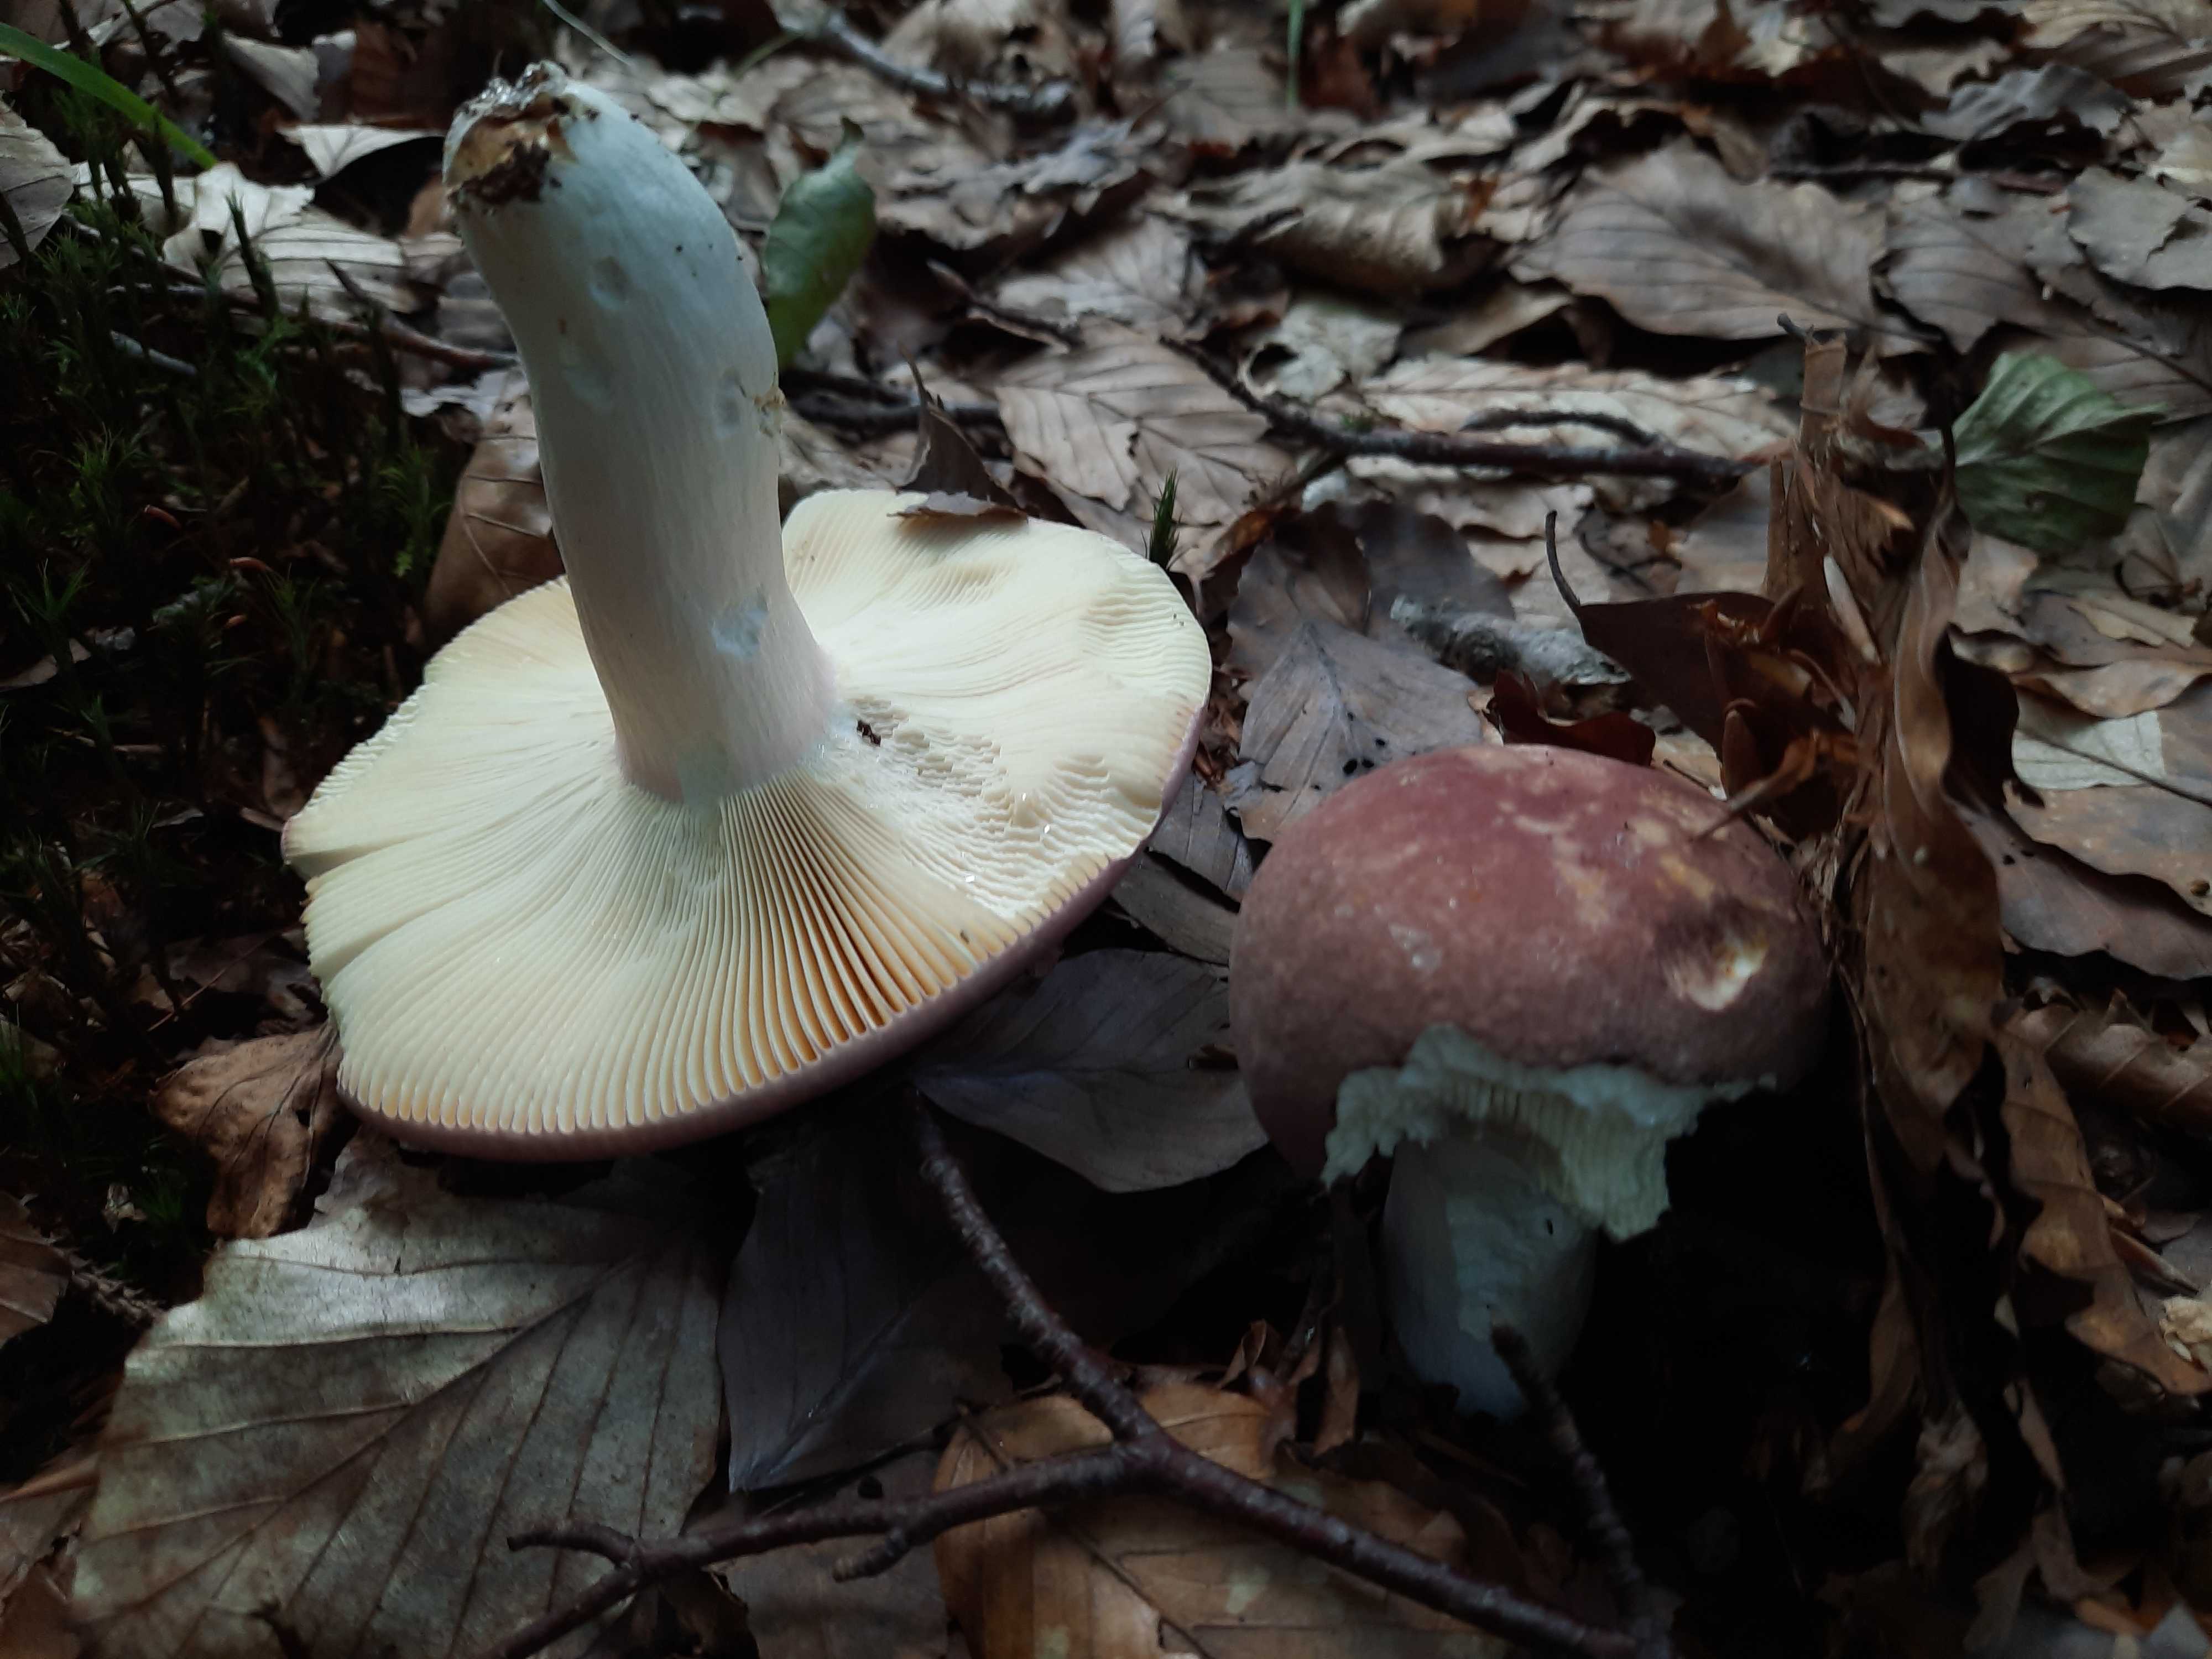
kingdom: Fungi
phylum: Basidiomycota
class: Agaricomycetes
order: Russulales
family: Russulaceae
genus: Russula
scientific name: Russula olivacea
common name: stor skørhat
